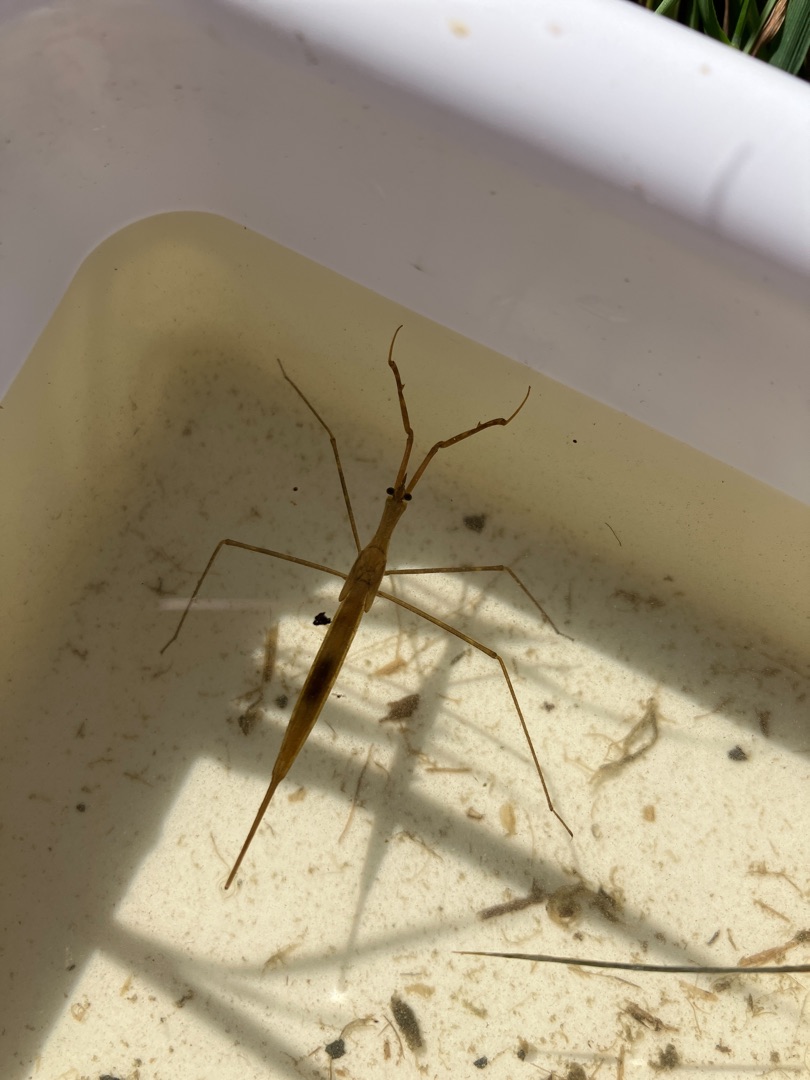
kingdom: Animalia
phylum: Arthropoda
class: Insecta
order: Hemiptera
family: Nepidae
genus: Ranatra
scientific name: Ranatra linearis
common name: Stavtæge
